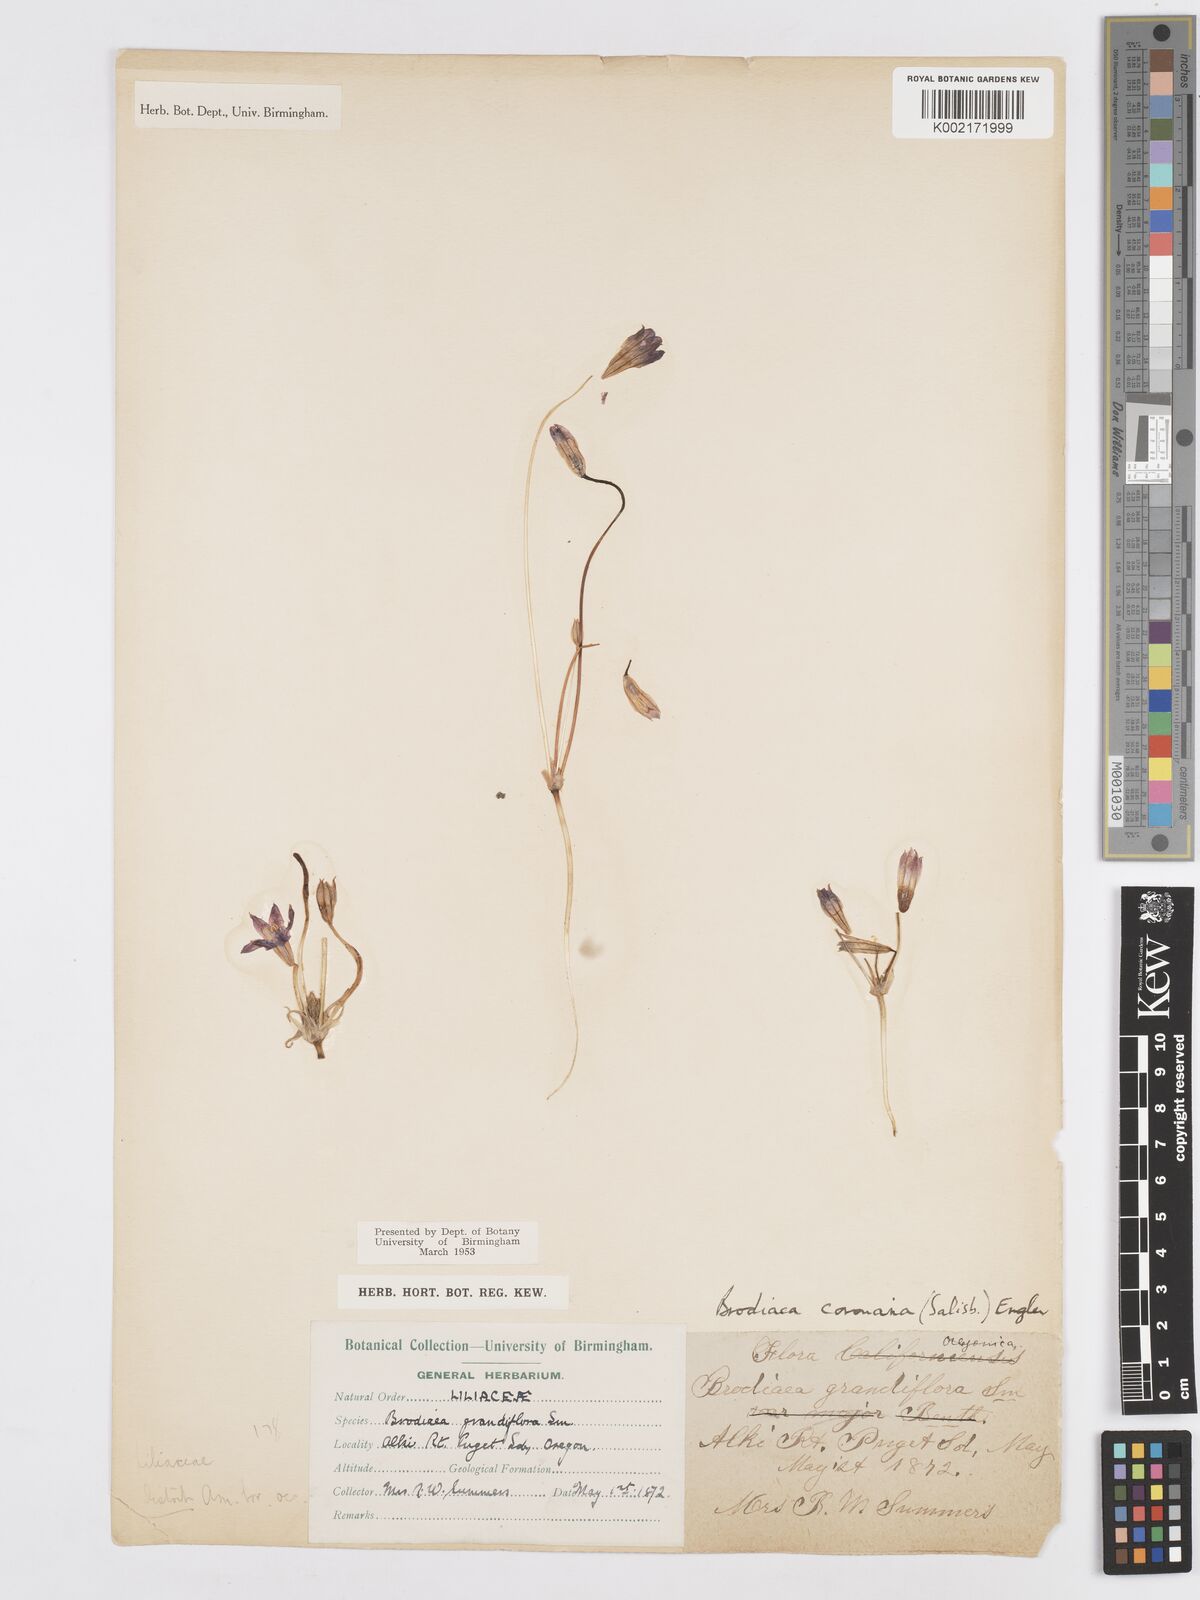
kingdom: Plantae
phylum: Tracheophyta
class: Liliopsida
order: Asparagales
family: Asparagaceae
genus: Brodiaea
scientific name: Brodiaea terrestris
